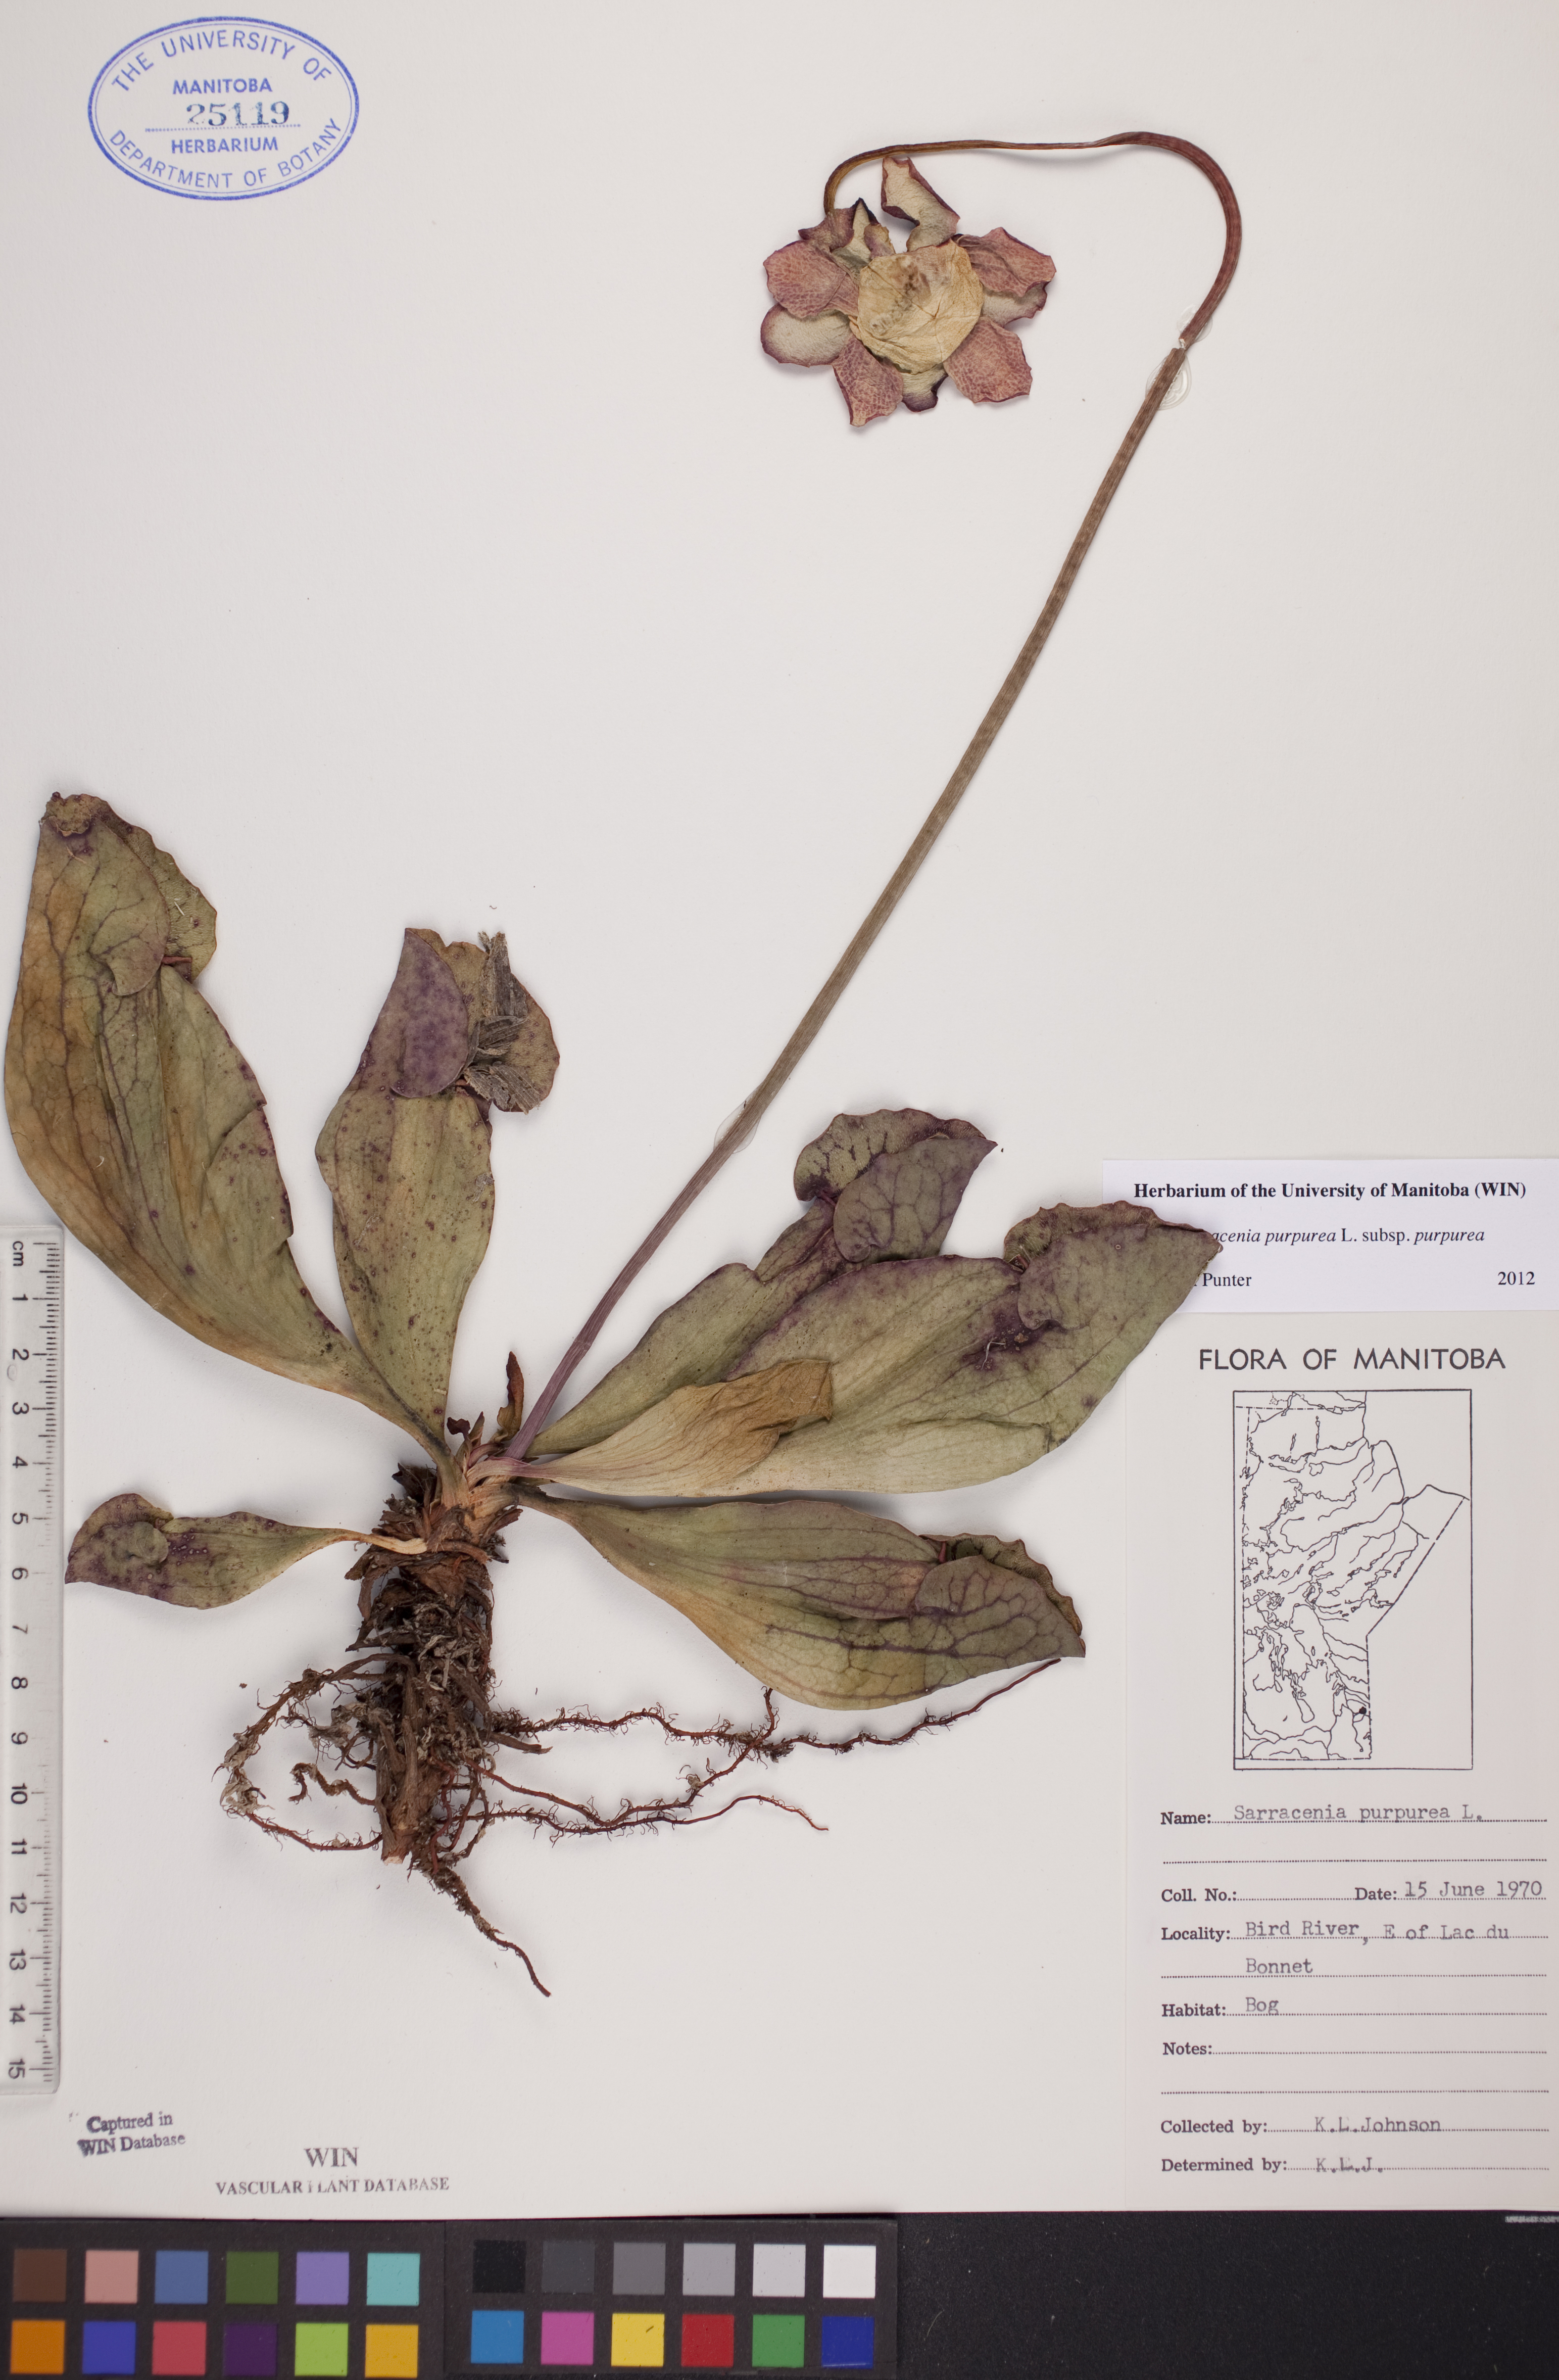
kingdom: Plantae
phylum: Tracheophyta
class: Magnoliopsida
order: Ericales
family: Sarraceniaceae
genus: Sarracenia
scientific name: Sarracenia purpurea
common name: Pitcherplant
